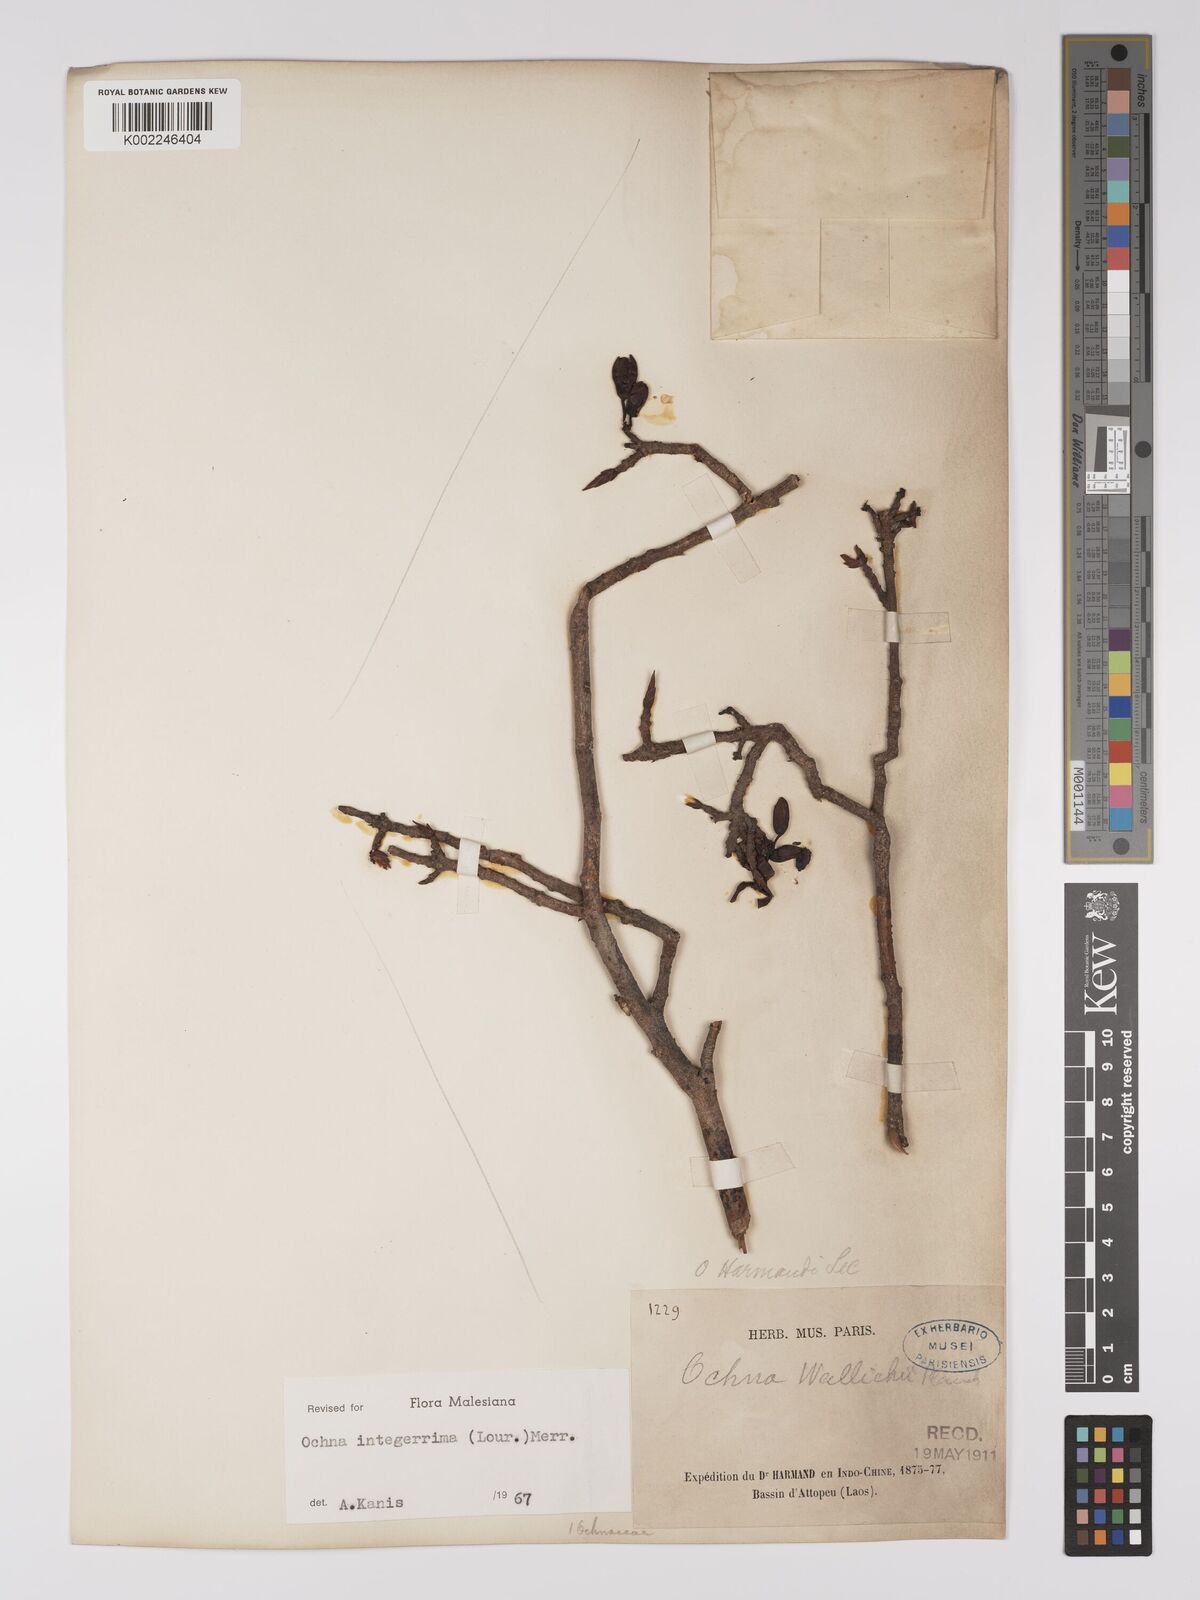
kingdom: Plantae
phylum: Tracheophyta
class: Magnoliopsida
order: Malpighiales
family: Ochnaceae
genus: Ochna
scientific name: Ochna integerrima
